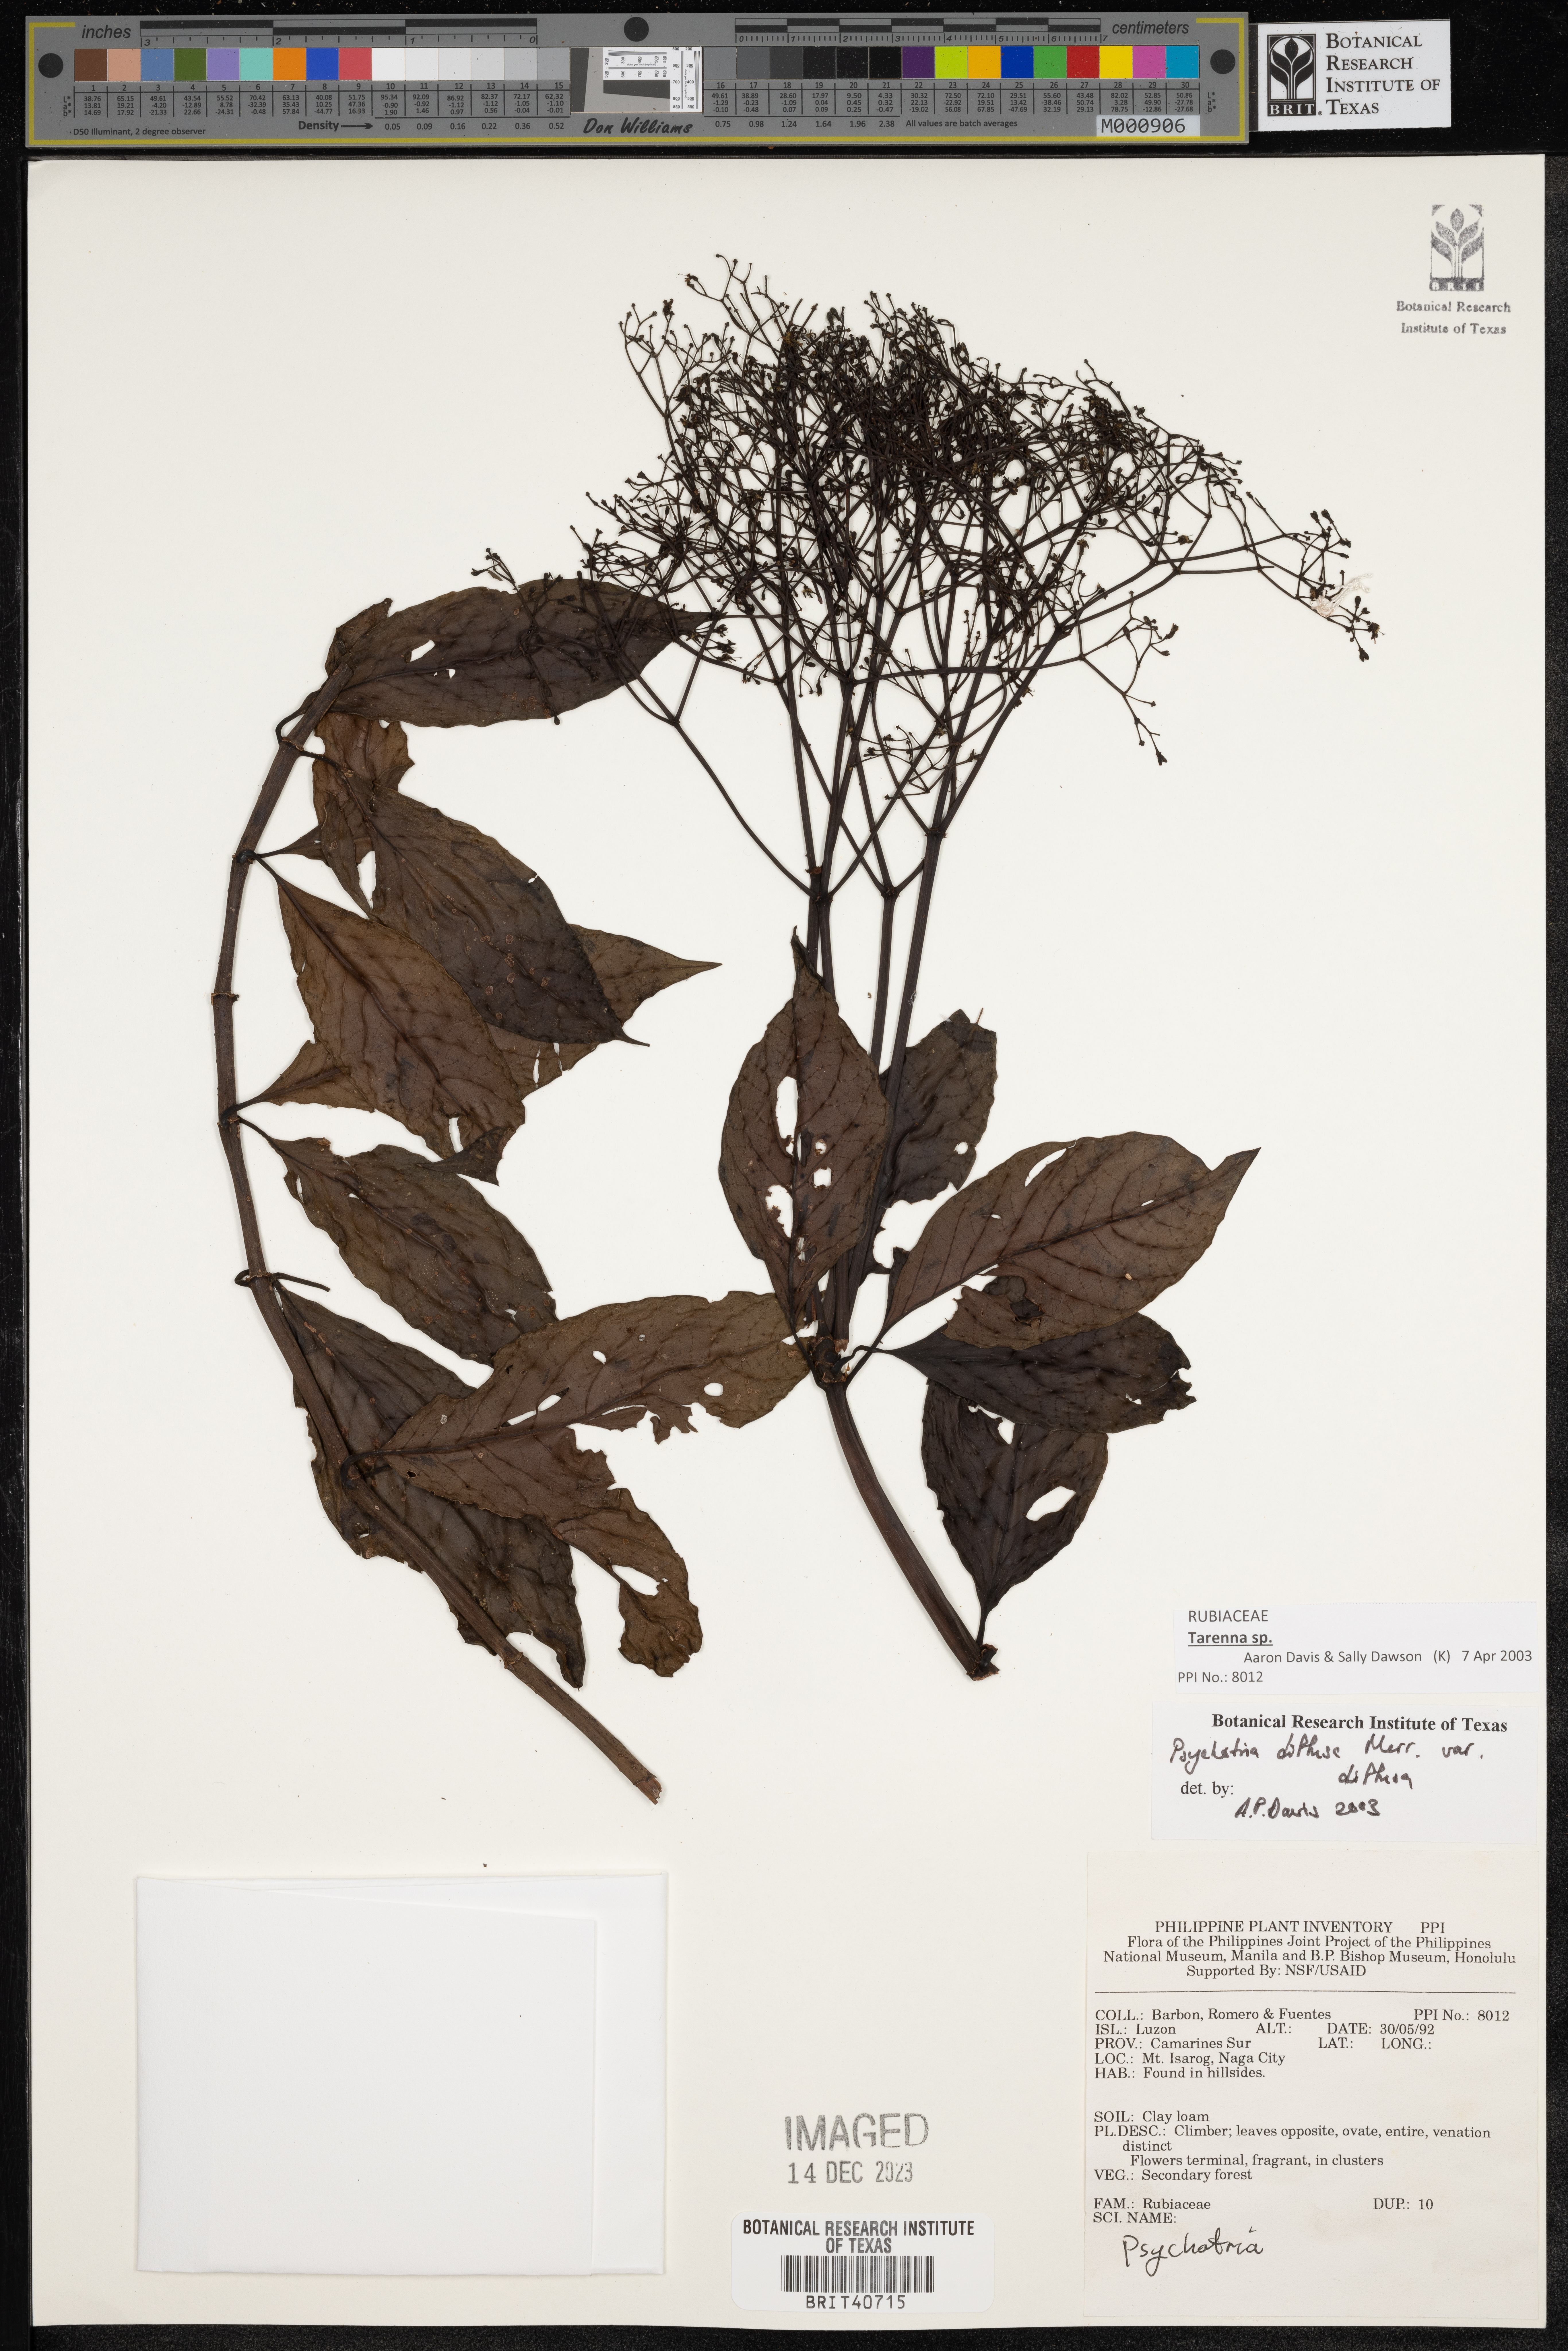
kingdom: Plantae
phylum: Tracheophyta
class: Magnoliopsida
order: Gentianales
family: Rubiaceae
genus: Psychotria
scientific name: Psychotria diffusa
